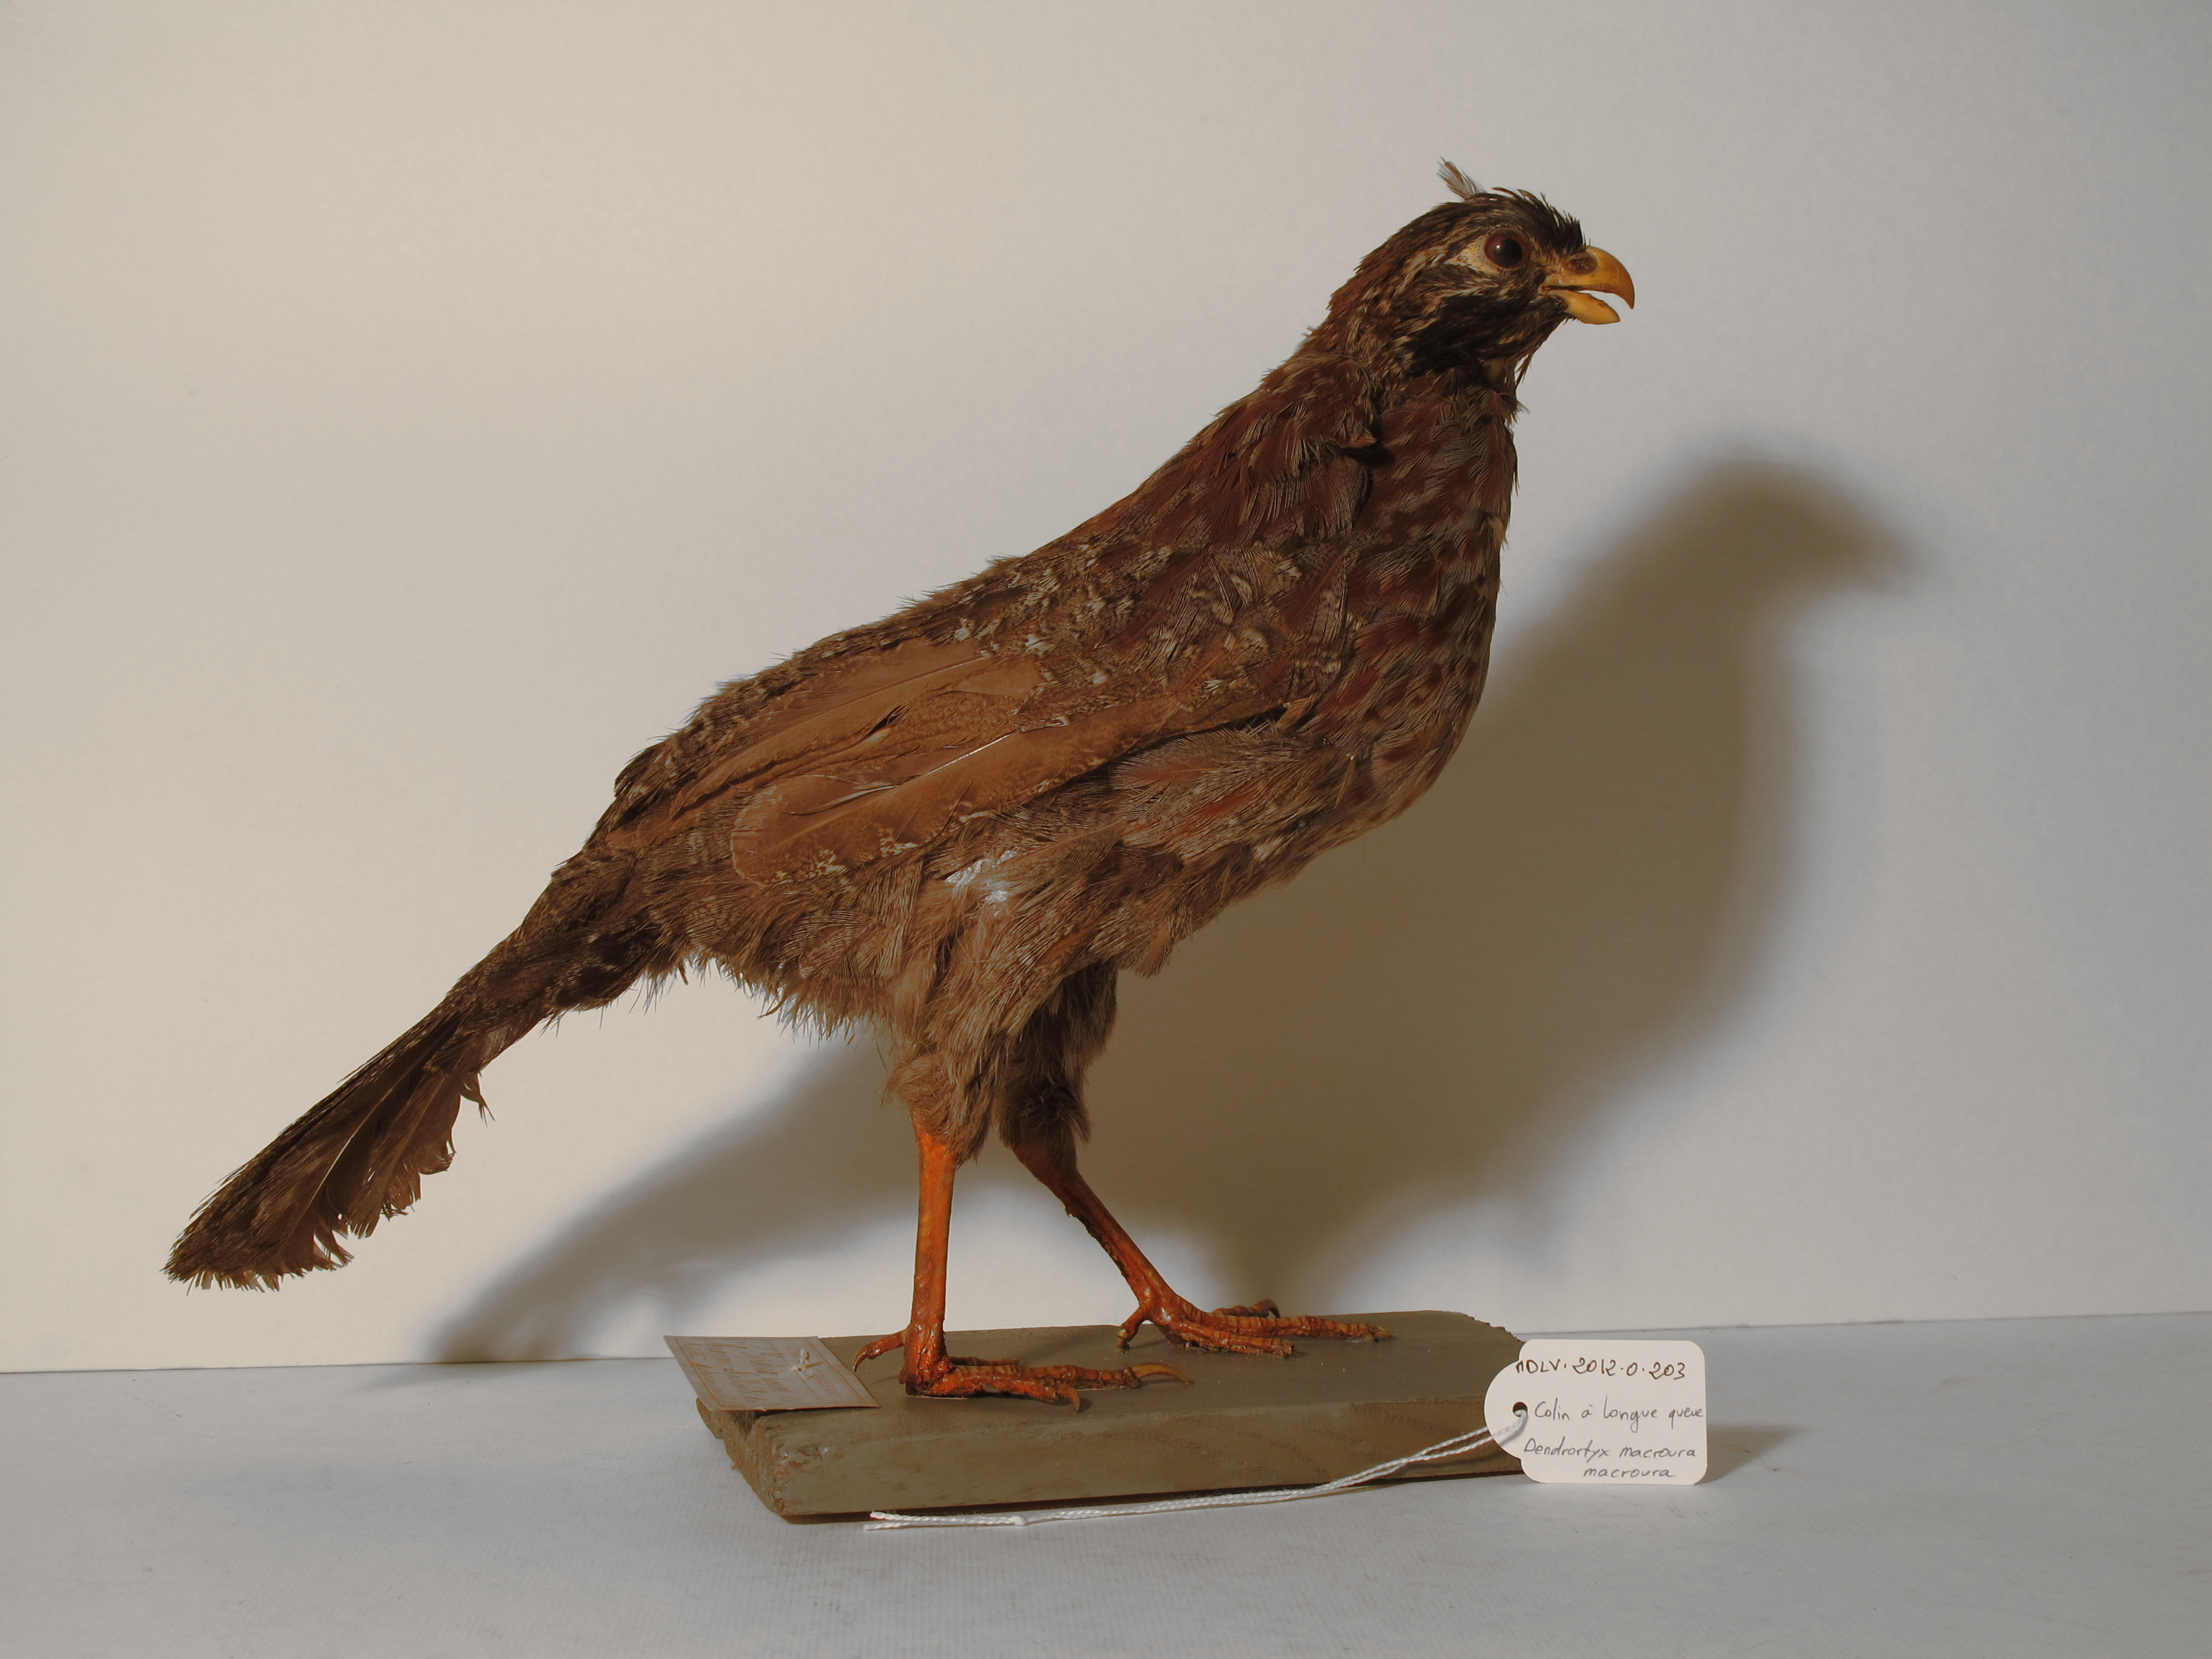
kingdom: Animalia
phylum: Chordata
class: Aves
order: Galliformes
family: Odontophoridae
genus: Dendrortyx
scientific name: Dendrortyx macroura
